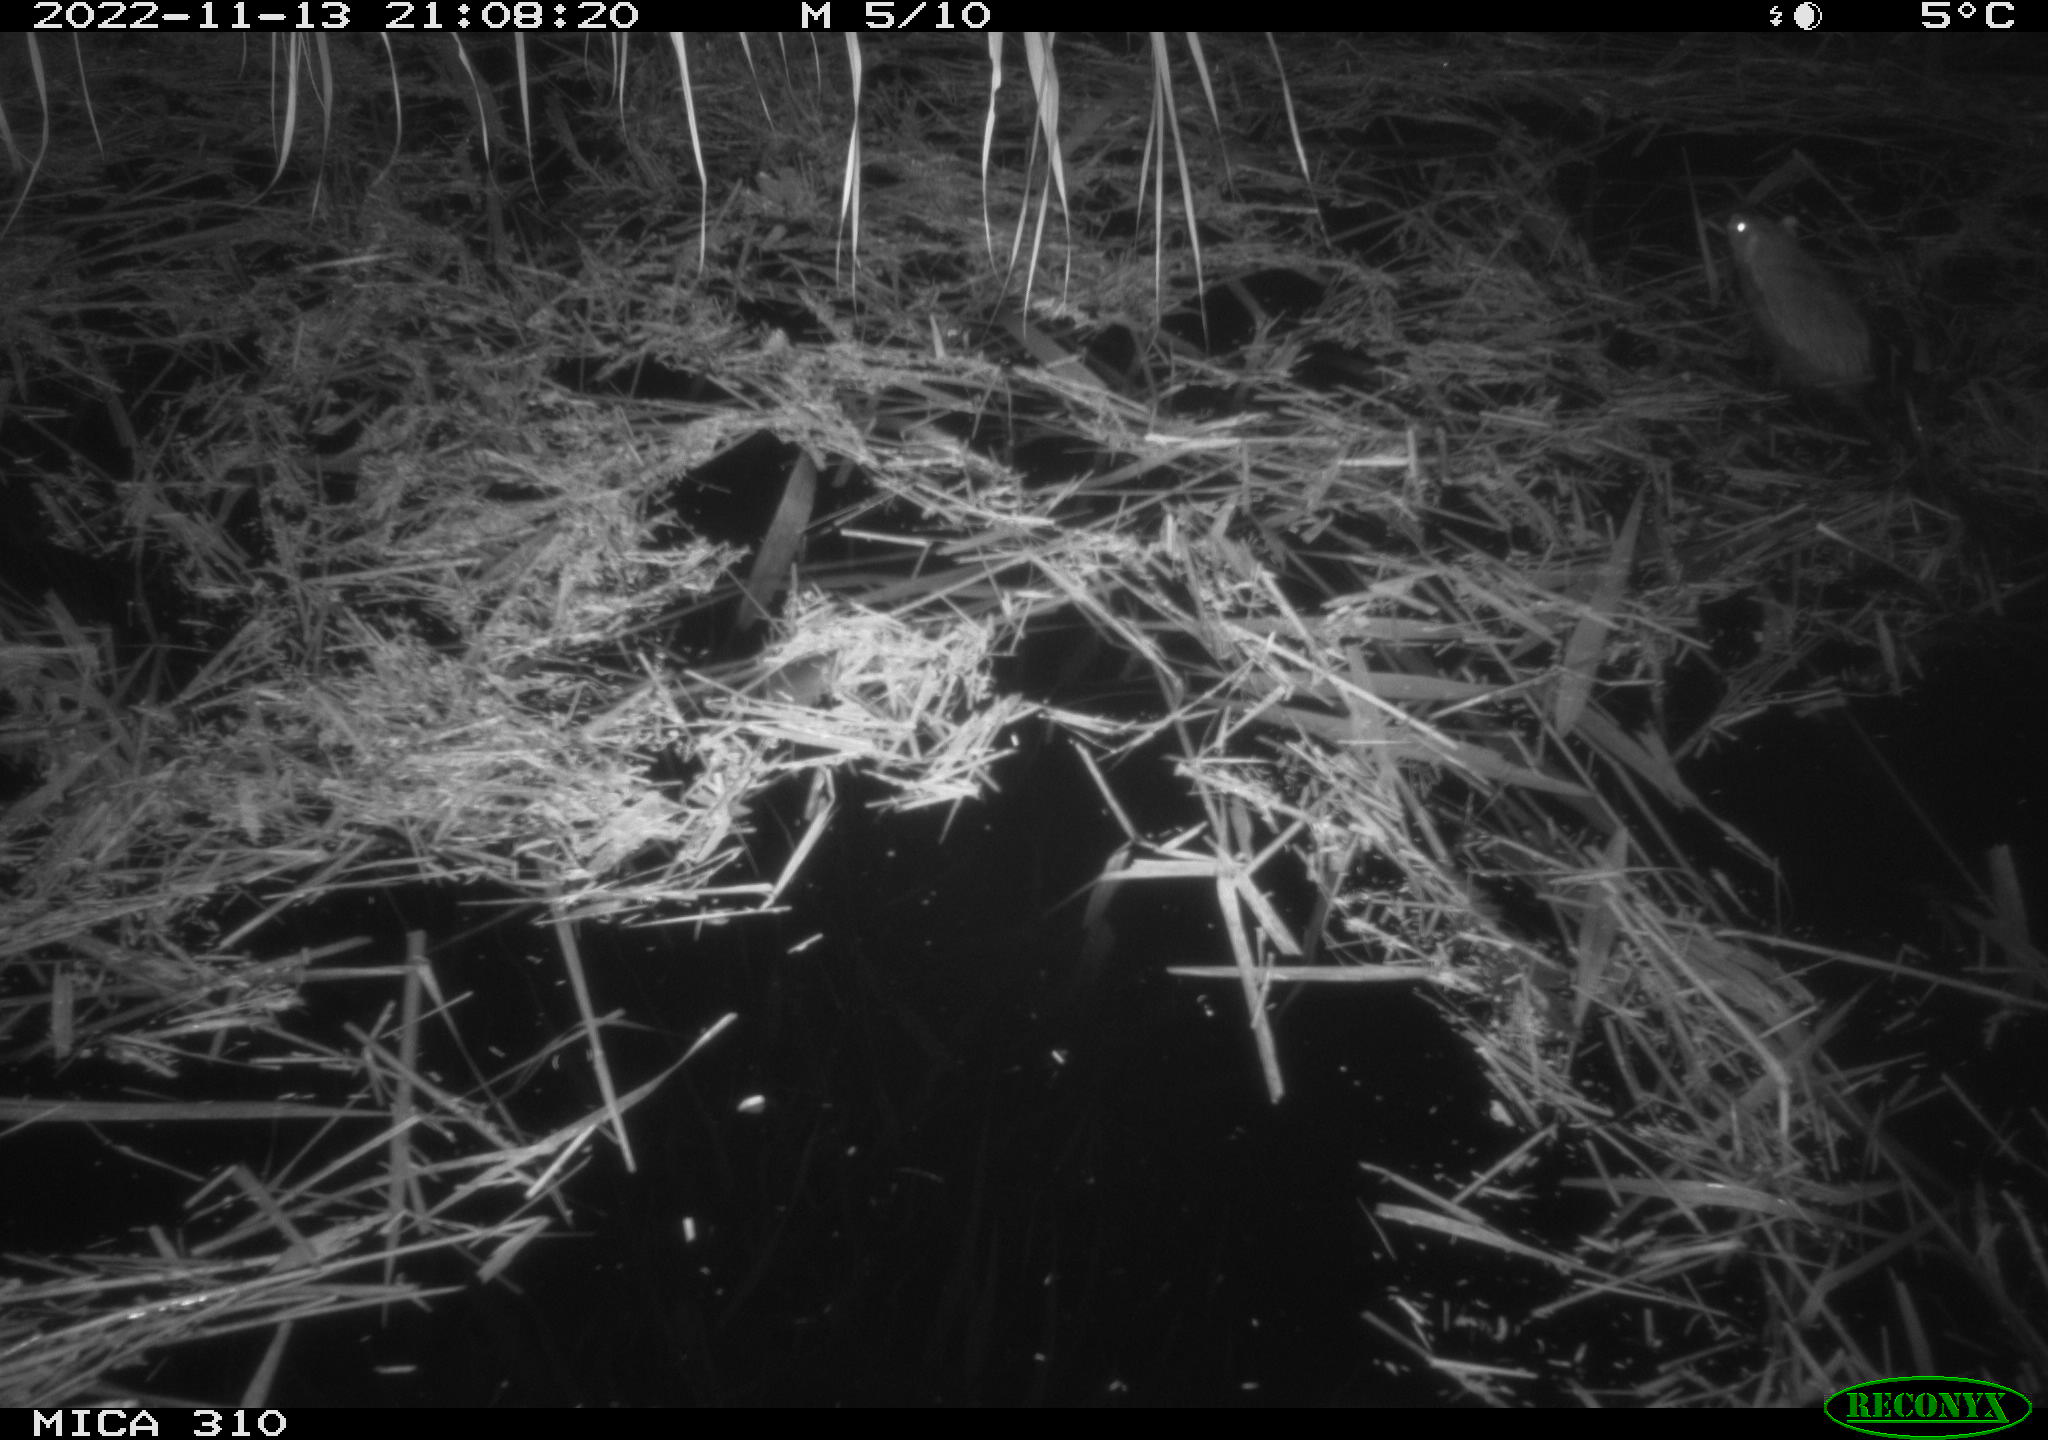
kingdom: Animalia
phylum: Chordata
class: Mammalia
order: Rodentia
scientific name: Rodentia
